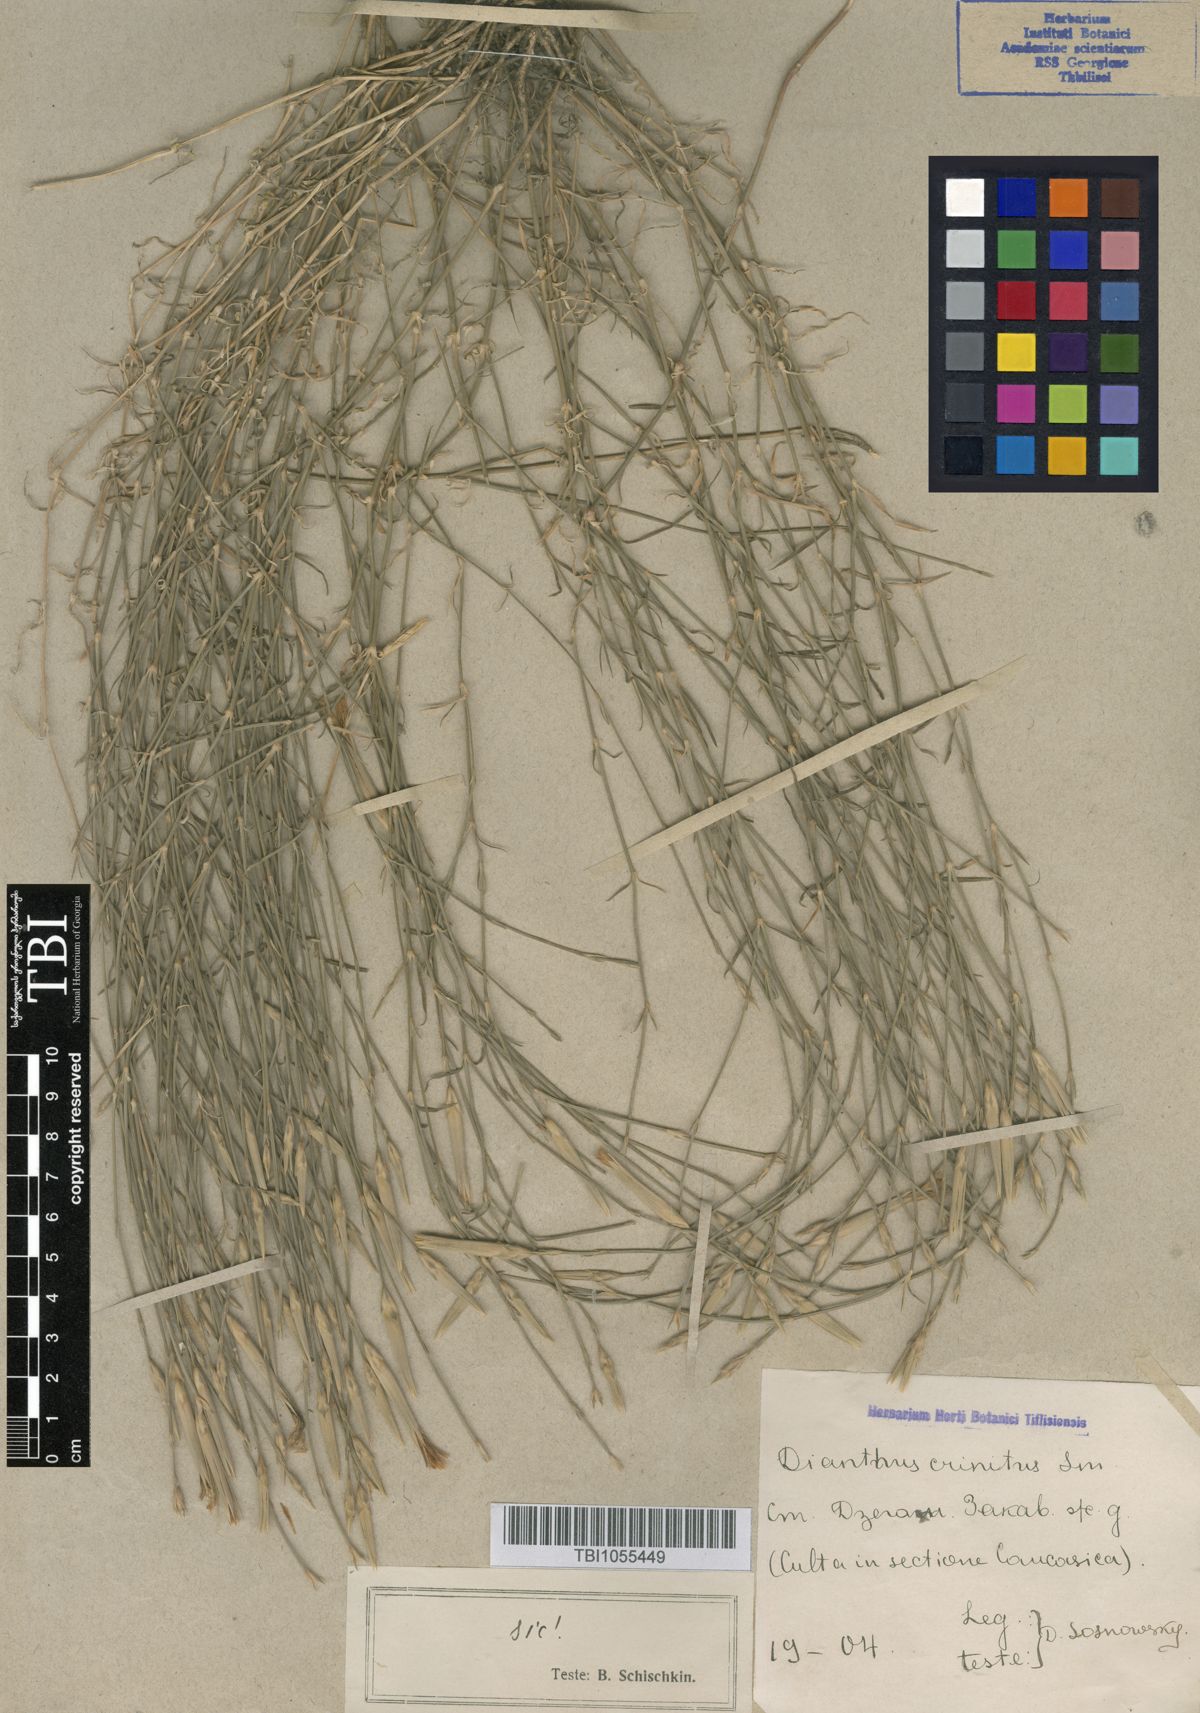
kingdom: Plantae
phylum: Tracheophyta
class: Magnoliopsida
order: Caryophyllales
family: Caryophyllaceae
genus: Dianthus
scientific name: Dianthus crinitus
